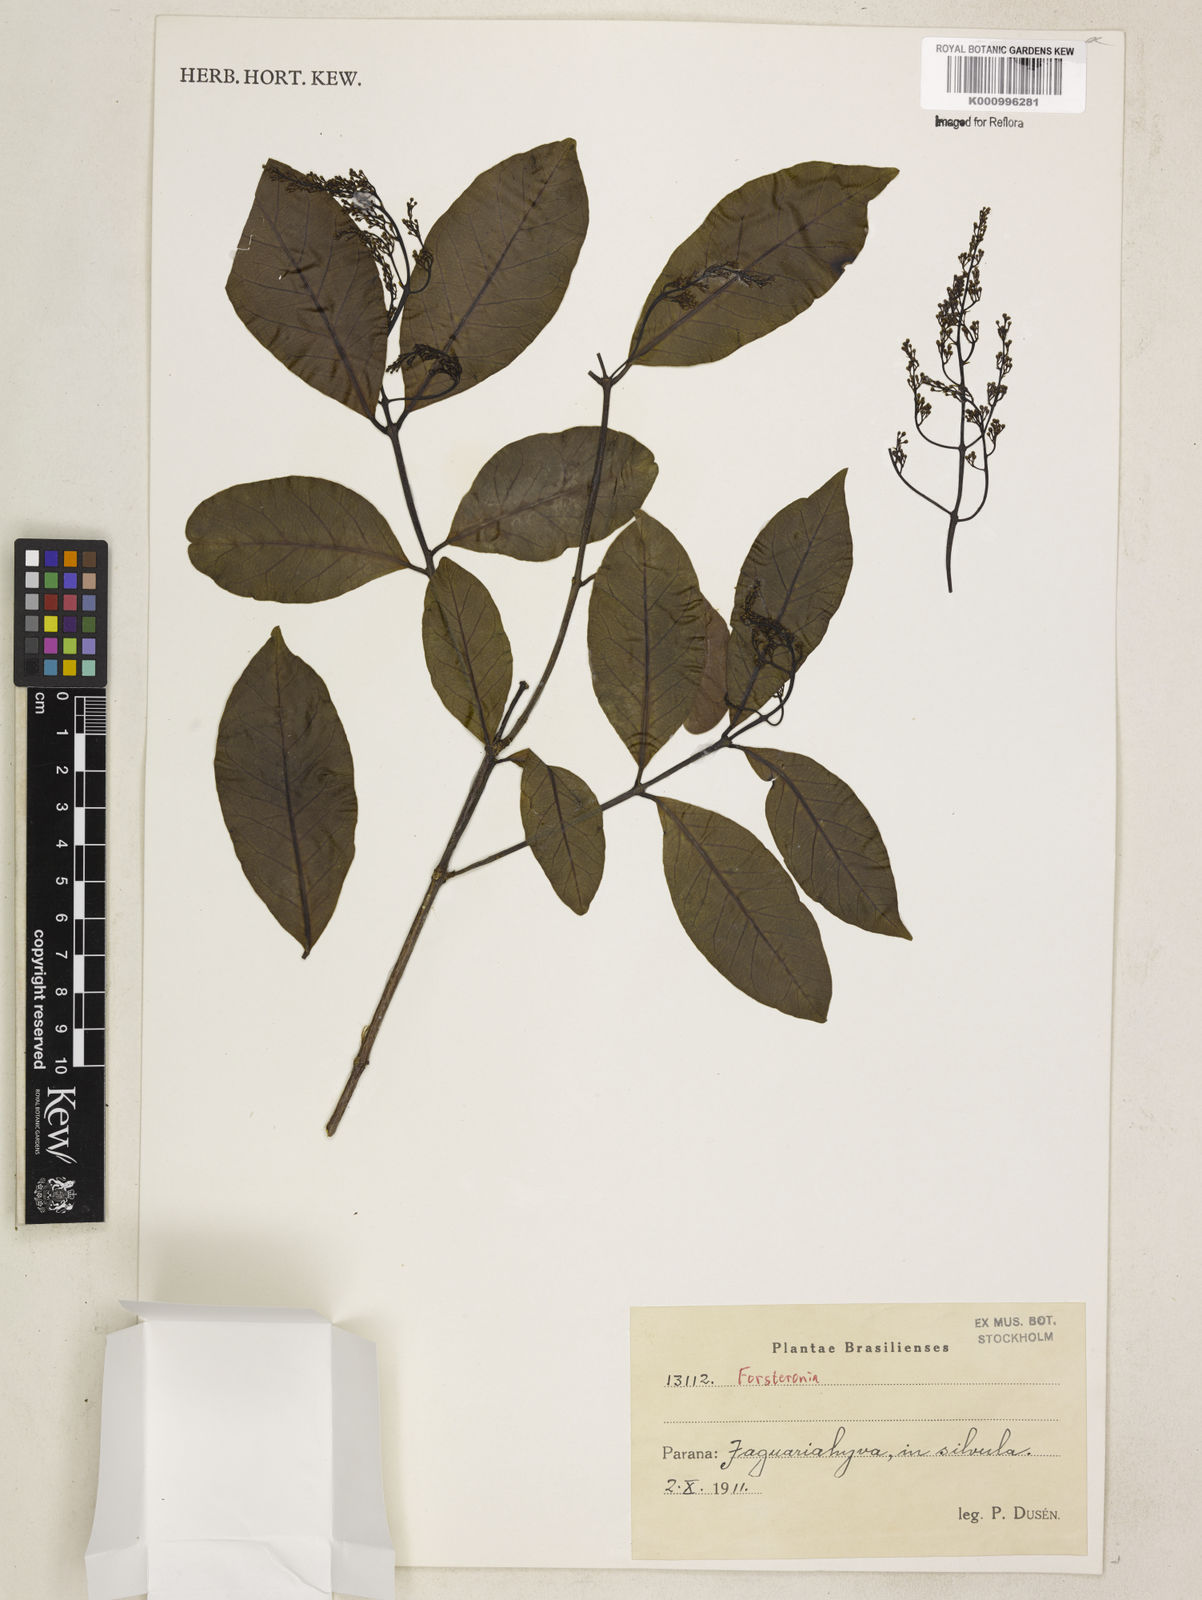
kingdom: Plantae
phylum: Tracheophyta
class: Magnoliopsida
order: Gentianales
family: Apocynaceae
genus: Forsteronia
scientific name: Forsteronia
